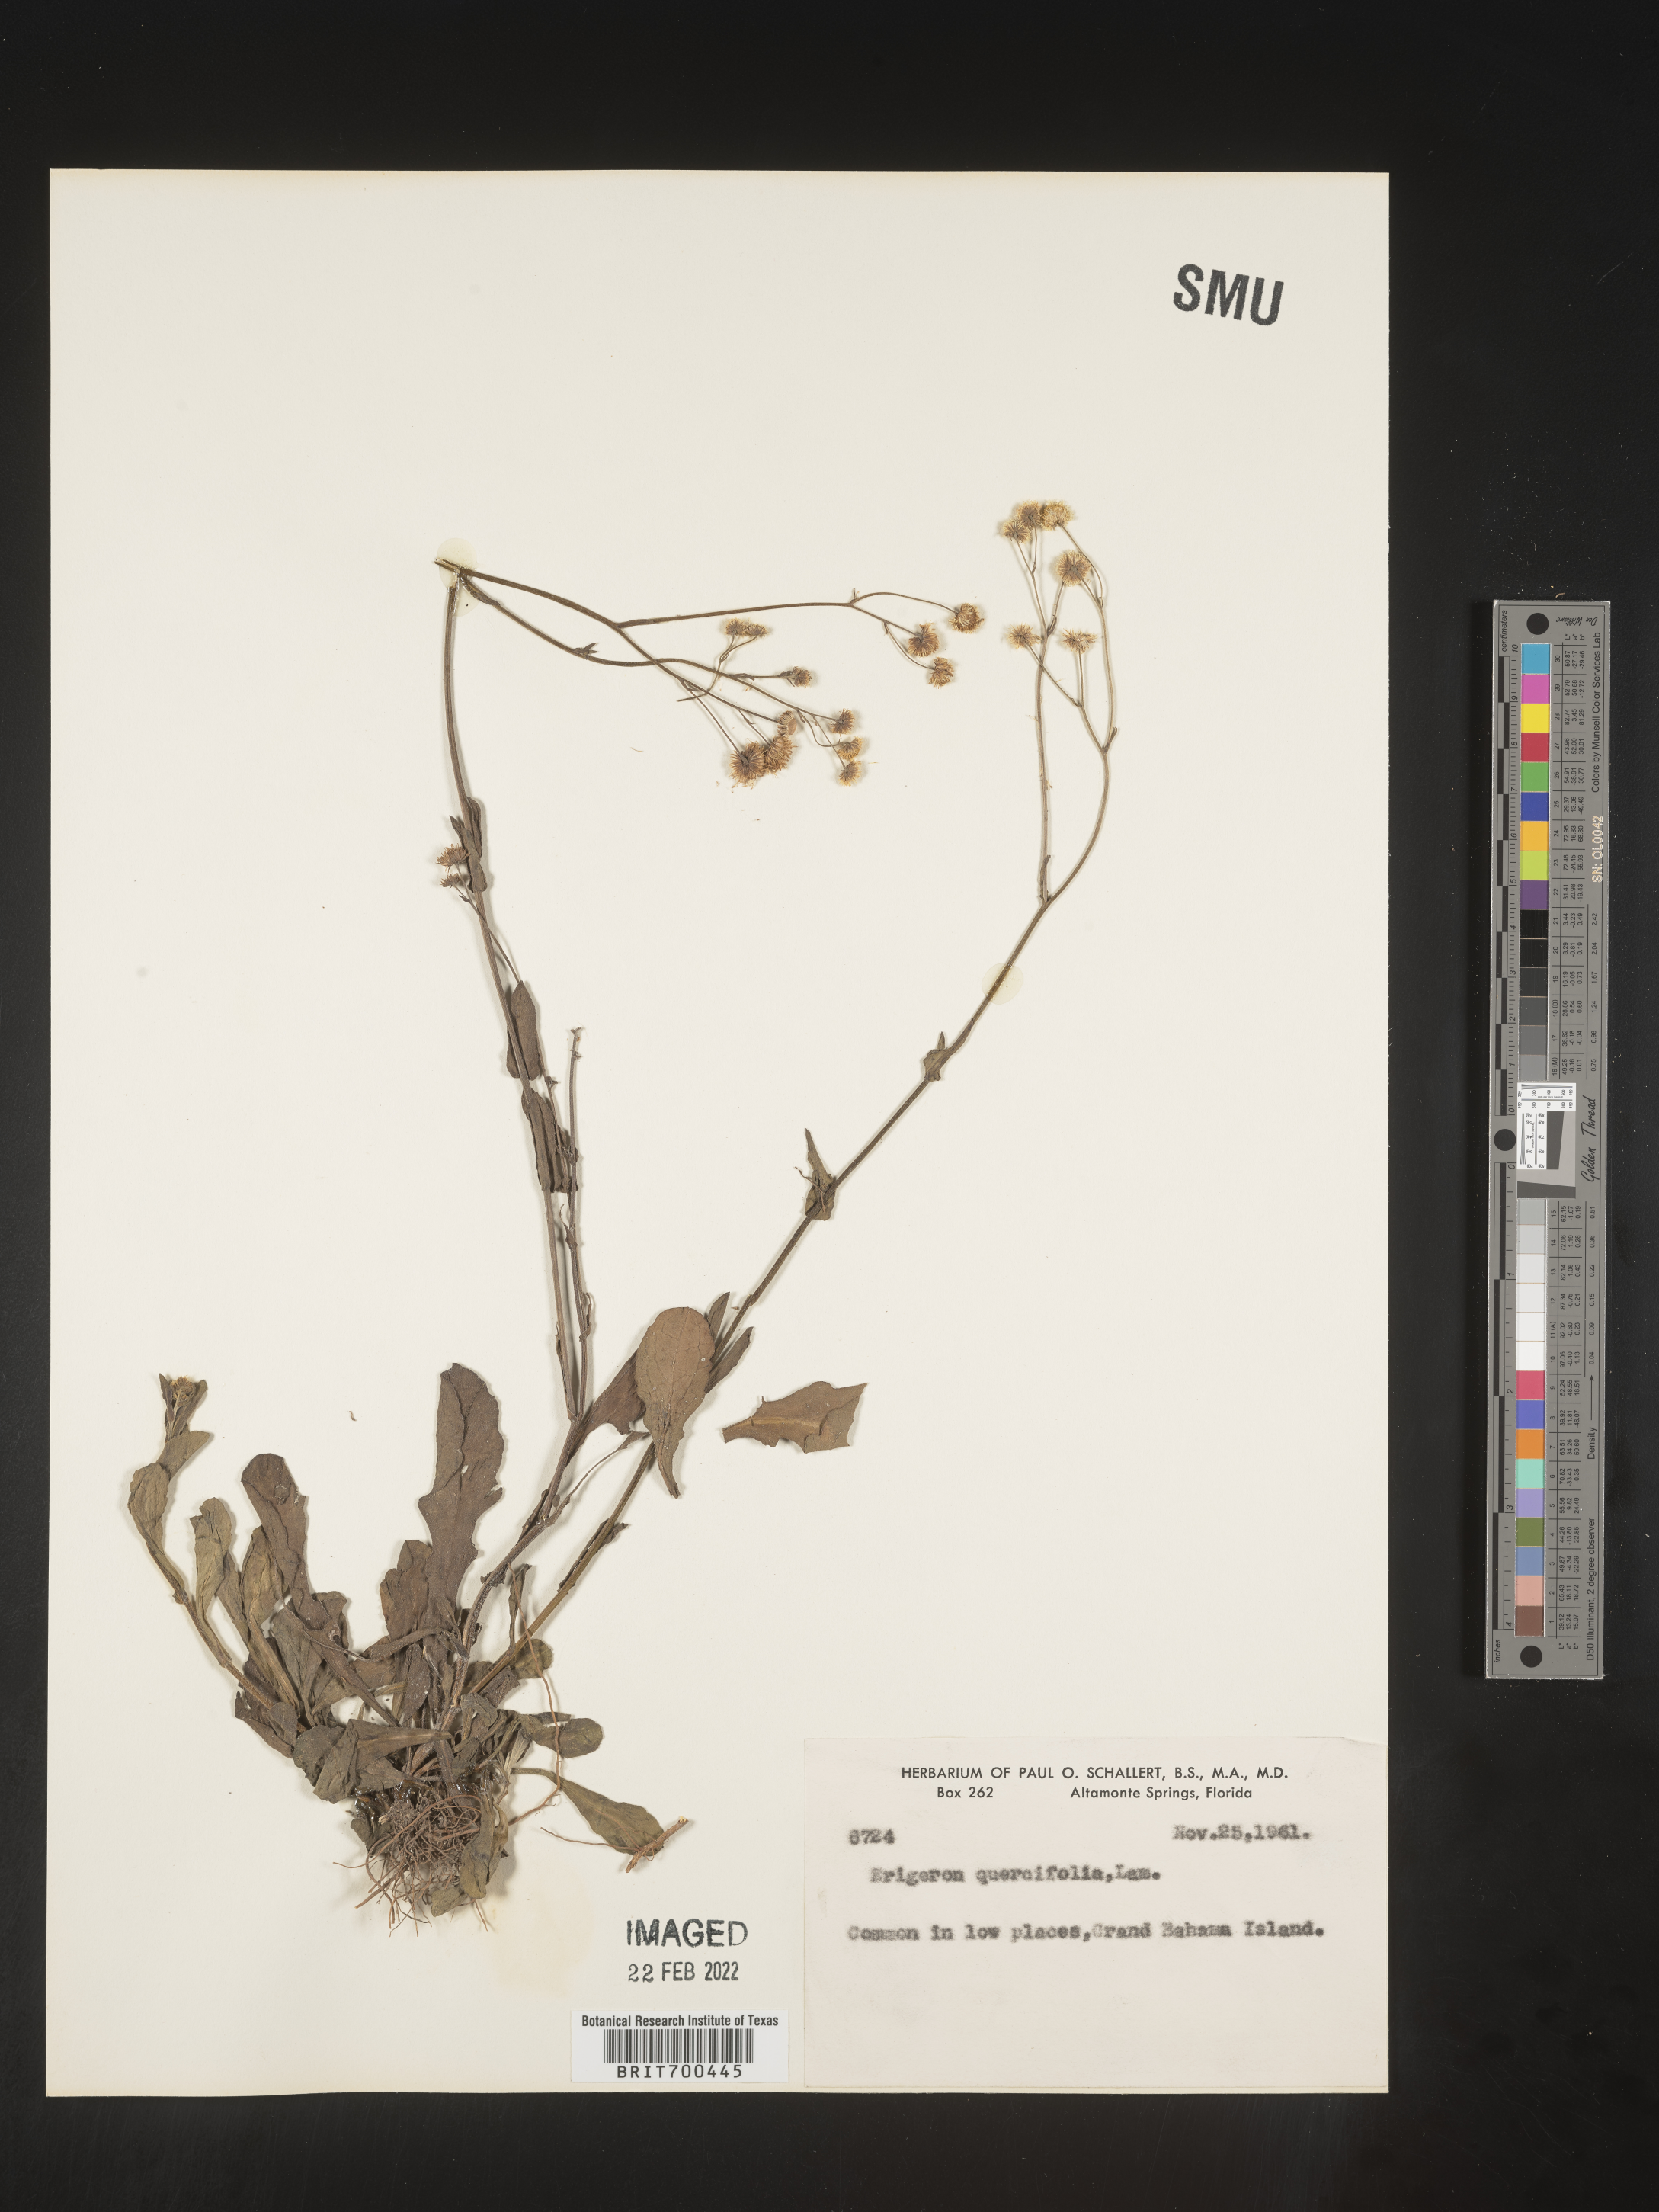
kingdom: Plantae
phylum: Tracheophyta
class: Magnoliopsida
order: Asterales
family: Asteraceae
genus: Erigeron
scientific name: Erigeron
